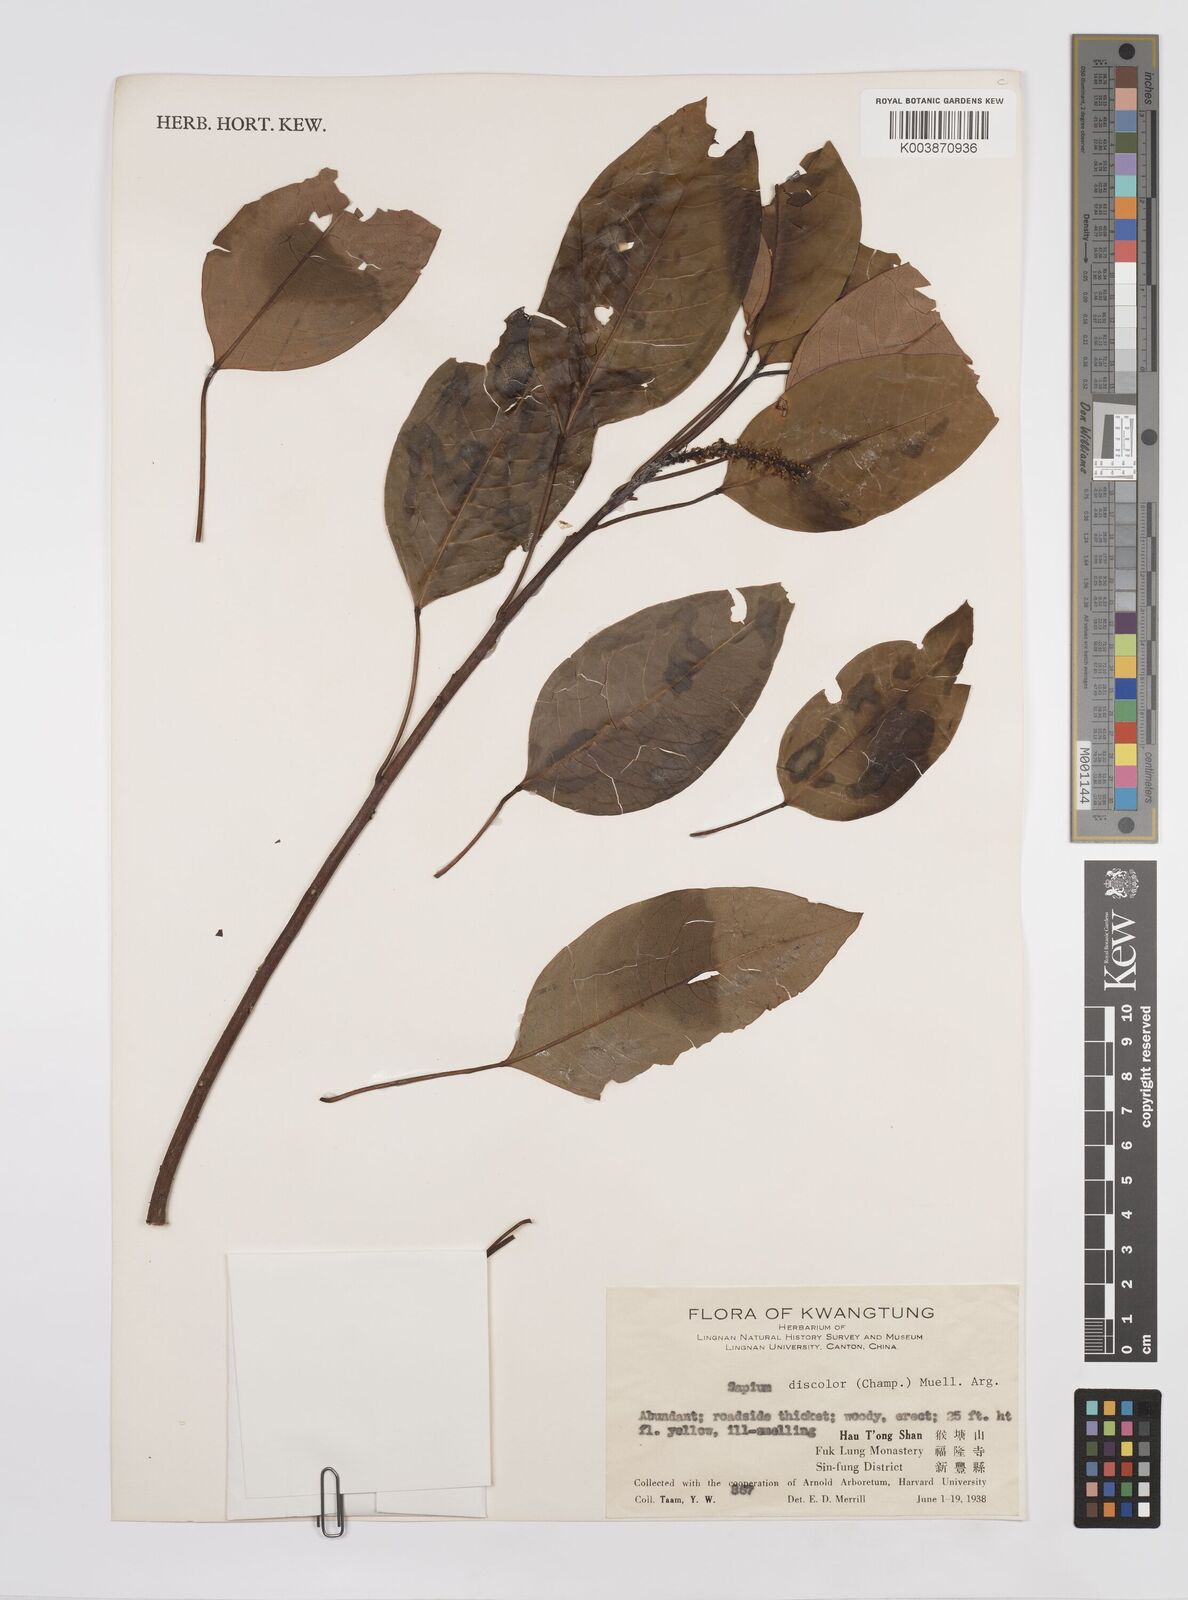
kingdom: Plantae
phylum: Tracheophyta
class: Magnoliopsida
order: Malpighiales
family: Euphorbiaceae
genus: Triadica
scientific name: Triadica cochinchinensis
